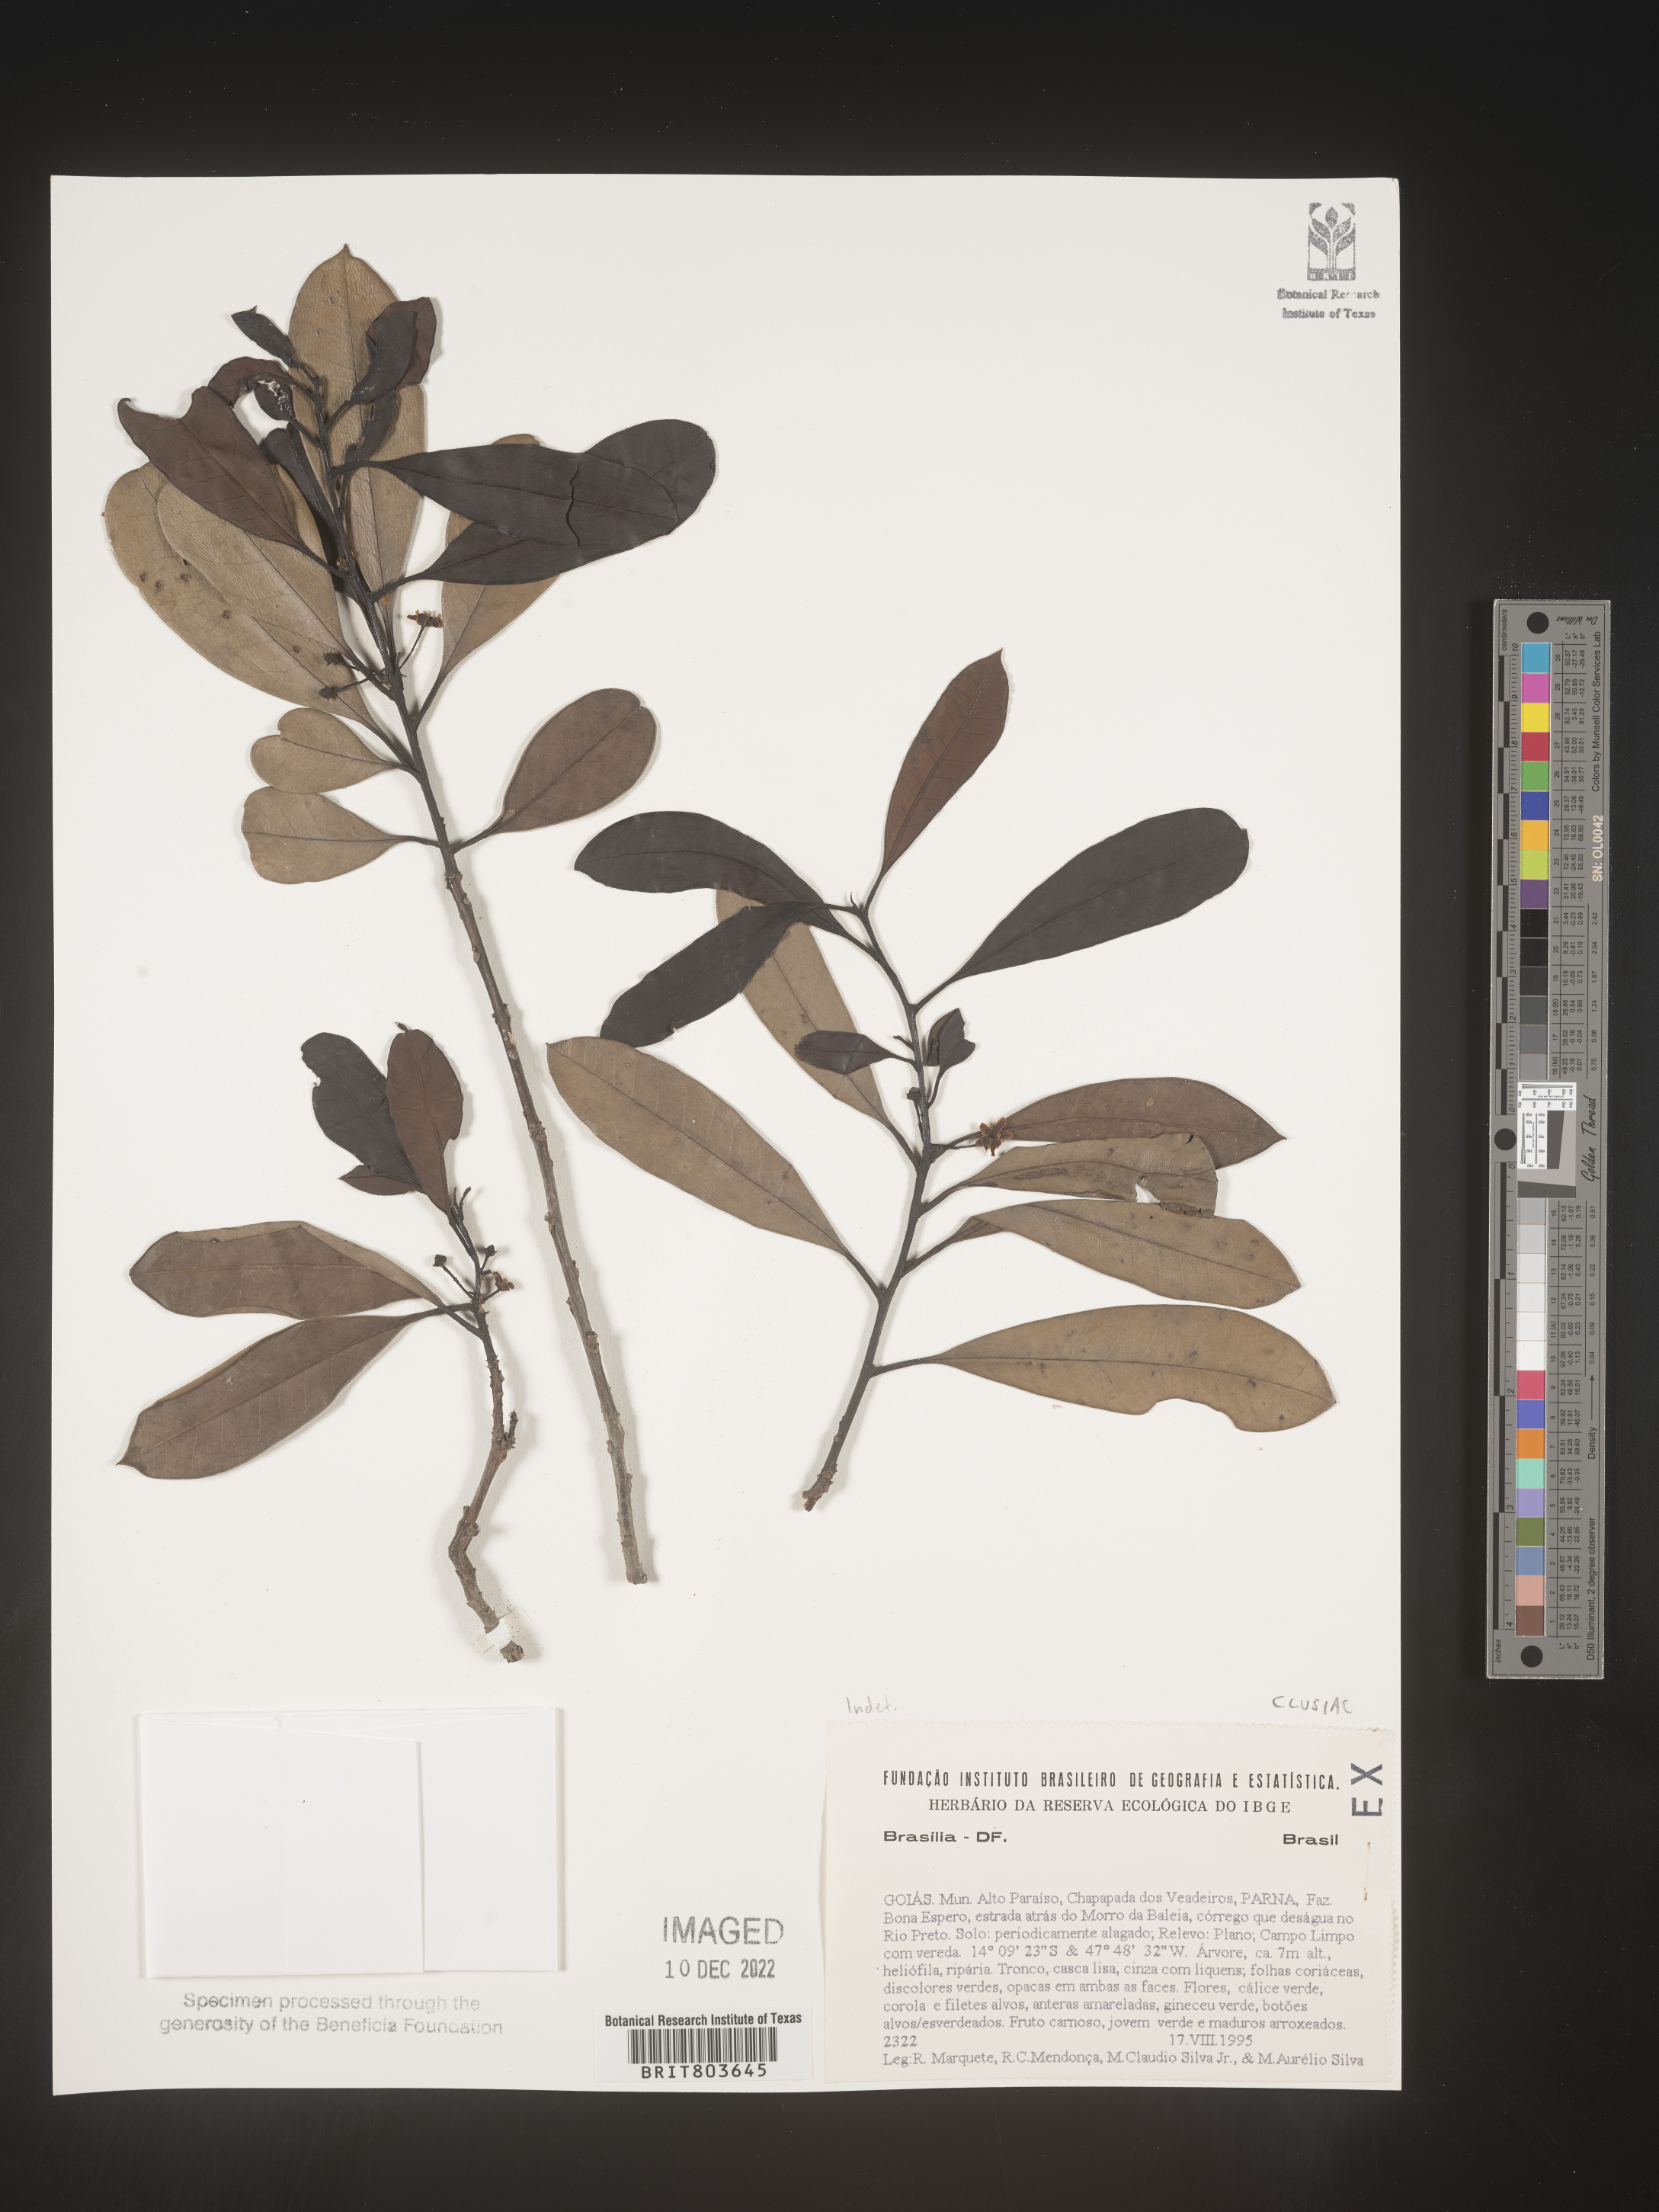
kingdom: Plantae
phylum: Tracheophyta
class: Magnoliopsida
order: Malpighiales
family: Clusiaceae
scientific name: Clusiaceae
